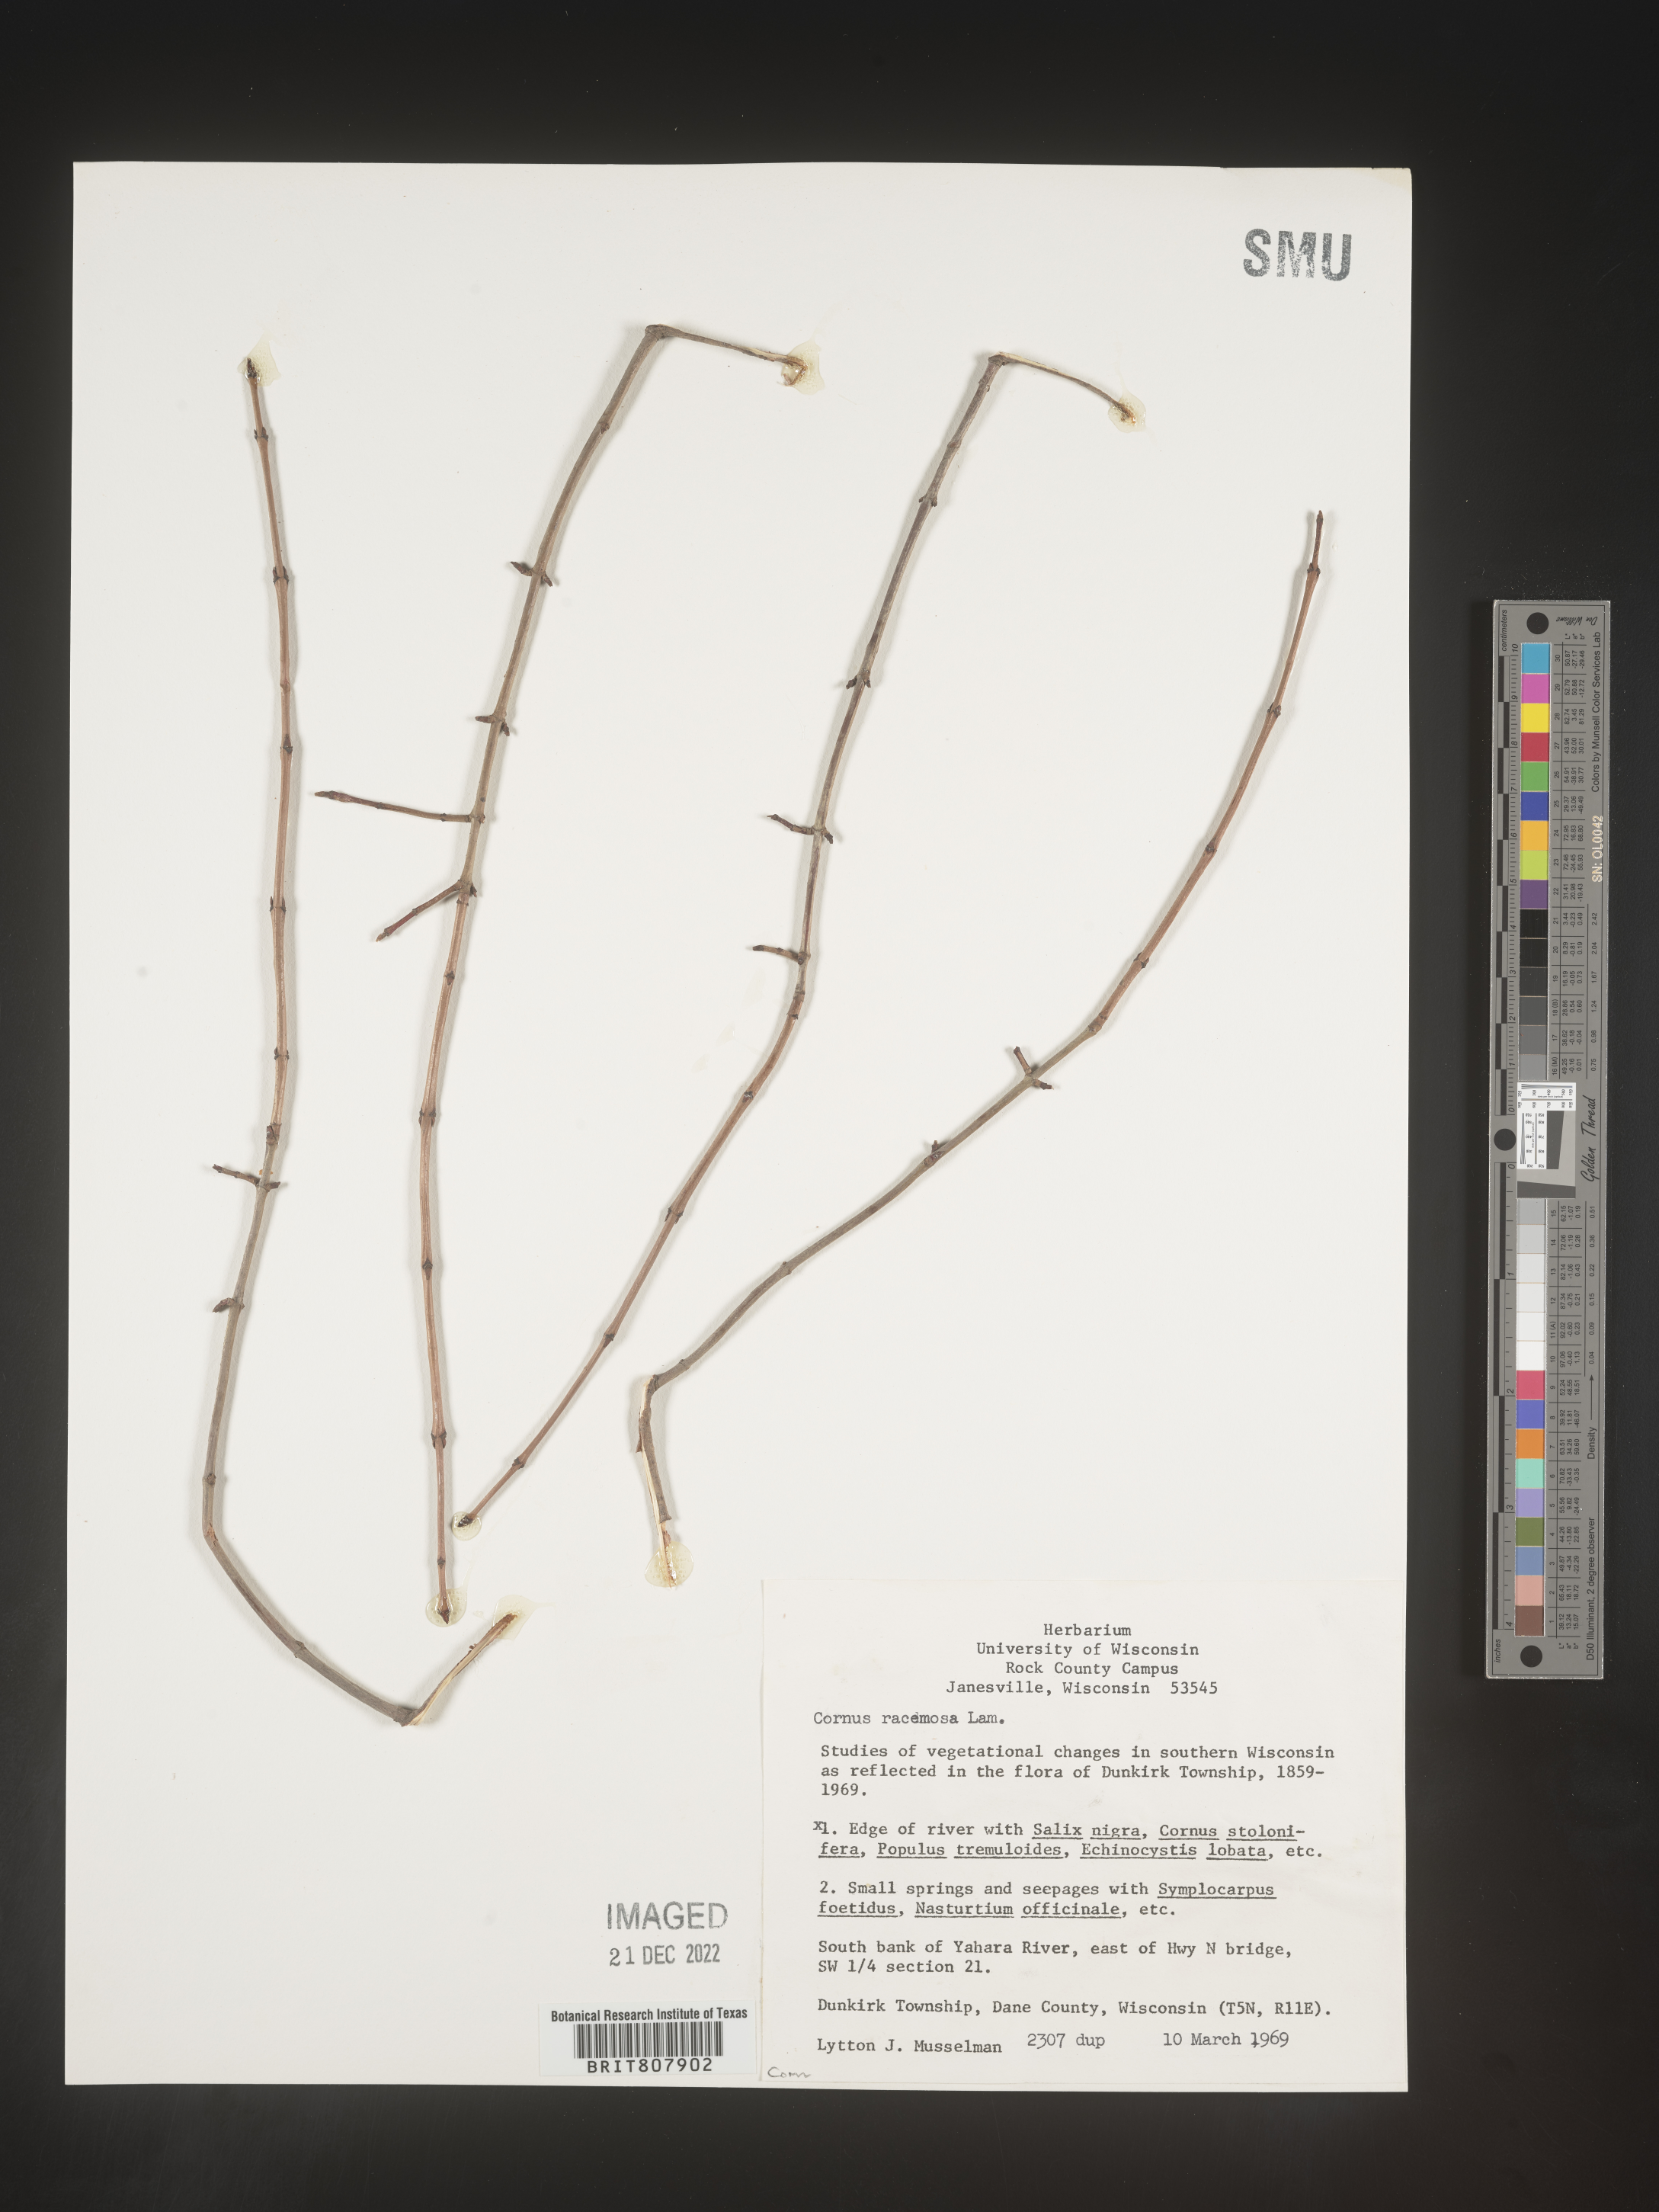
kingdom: Plantae
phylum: Tracheophyta
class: Magnoliopsida
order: Cornales
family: Cornaceae
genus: Cornus
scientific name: Cornus racemosa
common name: Panicled dogwood
